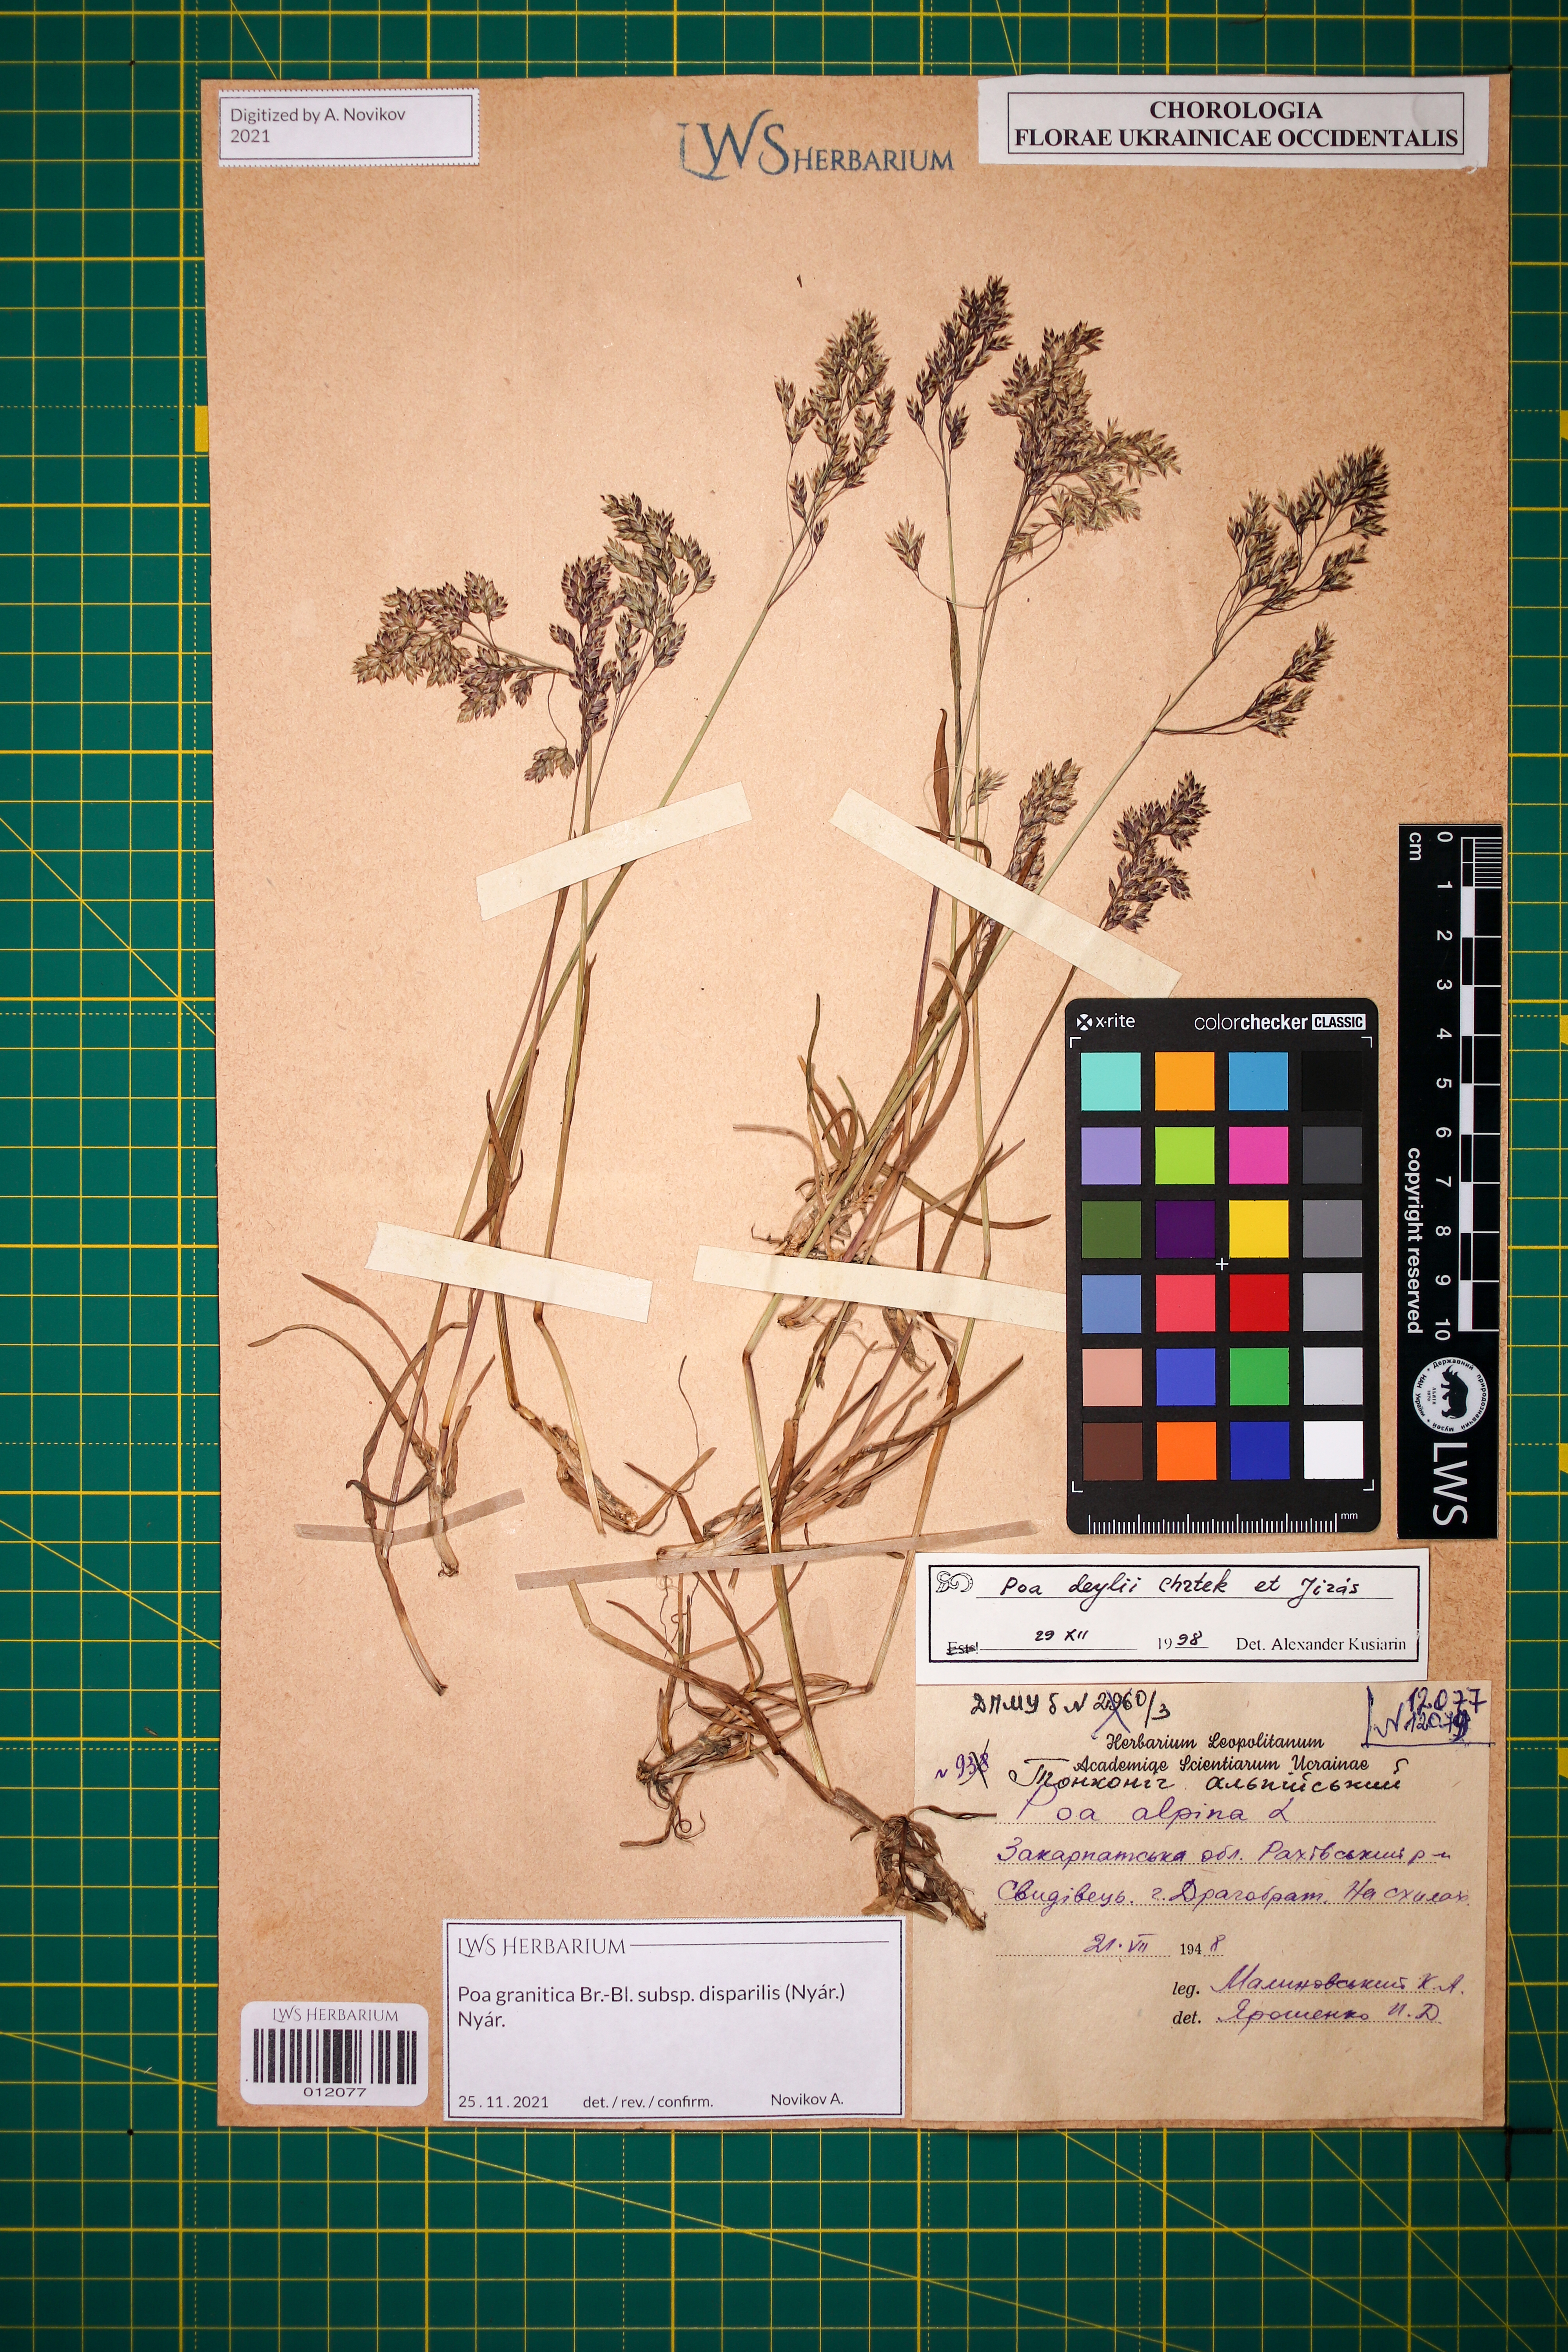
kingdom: Plantae
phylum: Tracheophyta
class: Liliopsida
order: Poales
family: Poaceae
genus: Poa
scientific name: Poa granitica
